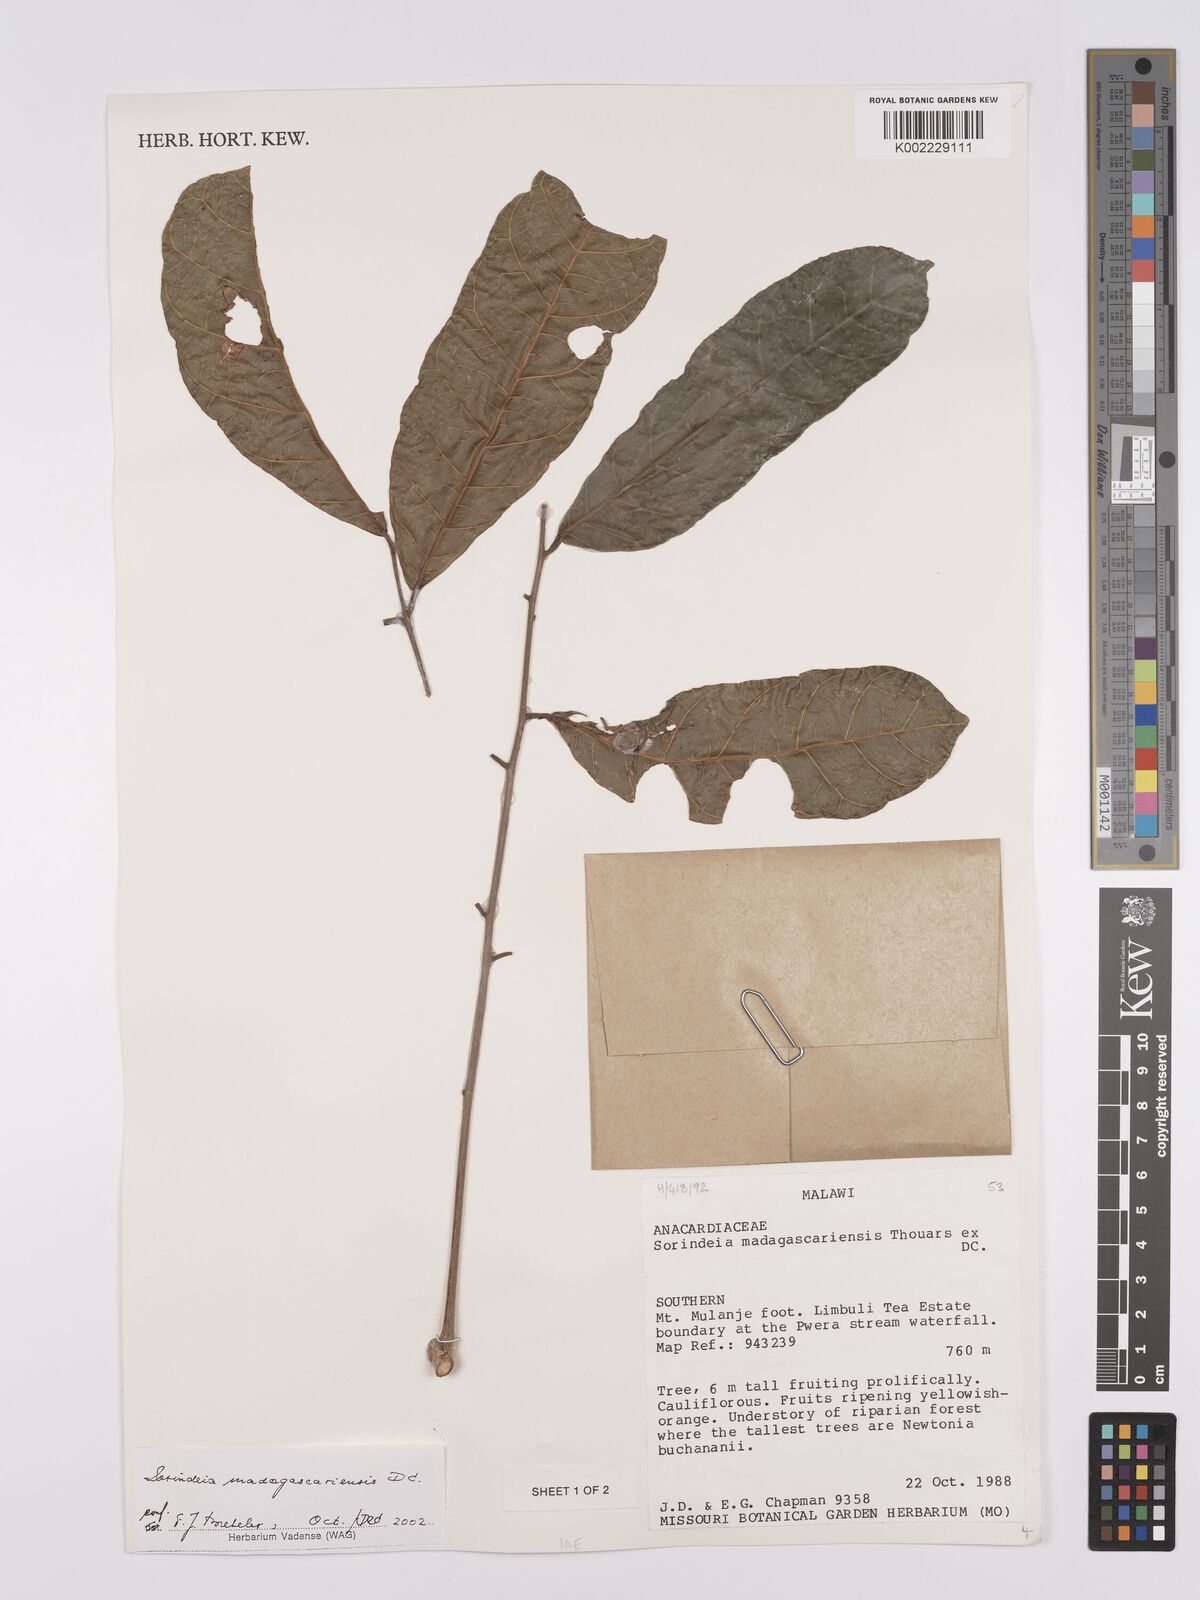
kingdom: Plantae
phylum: Tracheophyta
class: Magnoliopsida
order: Sapindales
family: Anacardiaceae
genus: Sorindeia
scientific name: Sorindeia madagascariensis
